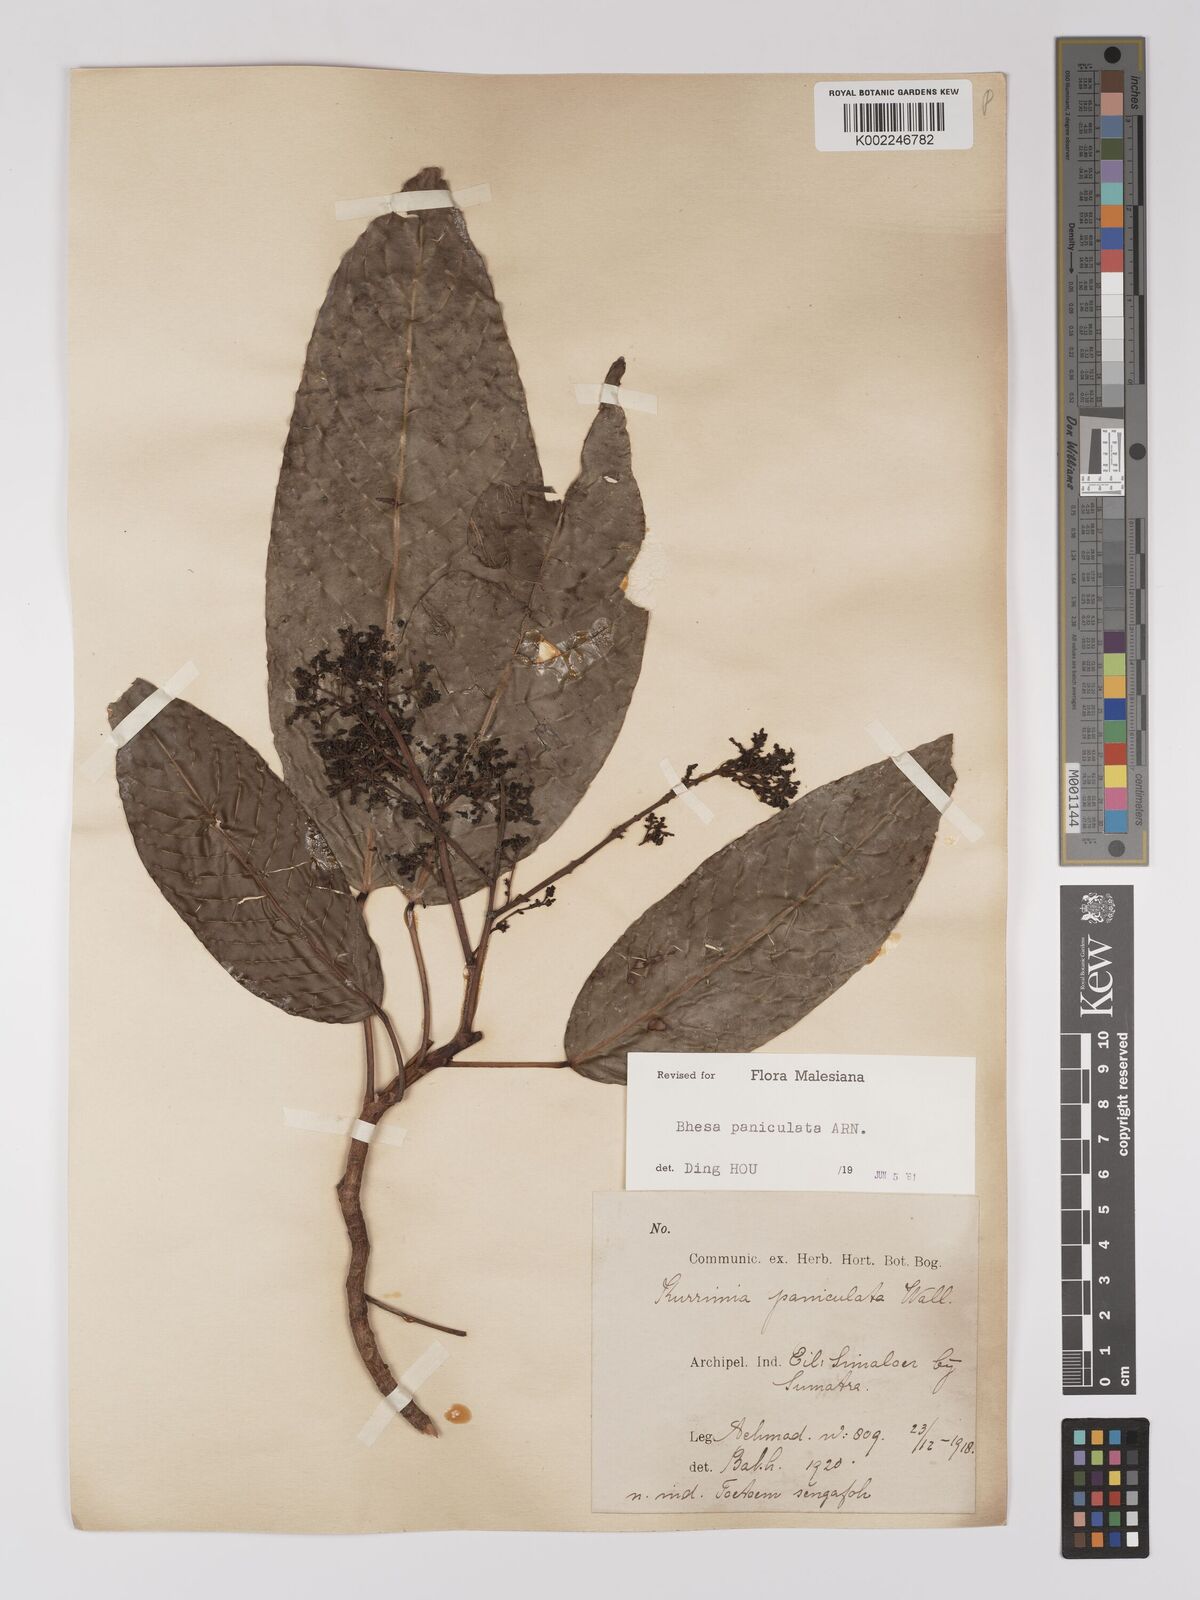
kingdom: Plantae
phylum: Tracheophyta
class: Magnoliopsida
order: Malpighiales
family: Centroplacaceae
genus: Bhesa
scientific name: Bhesa paniculata
